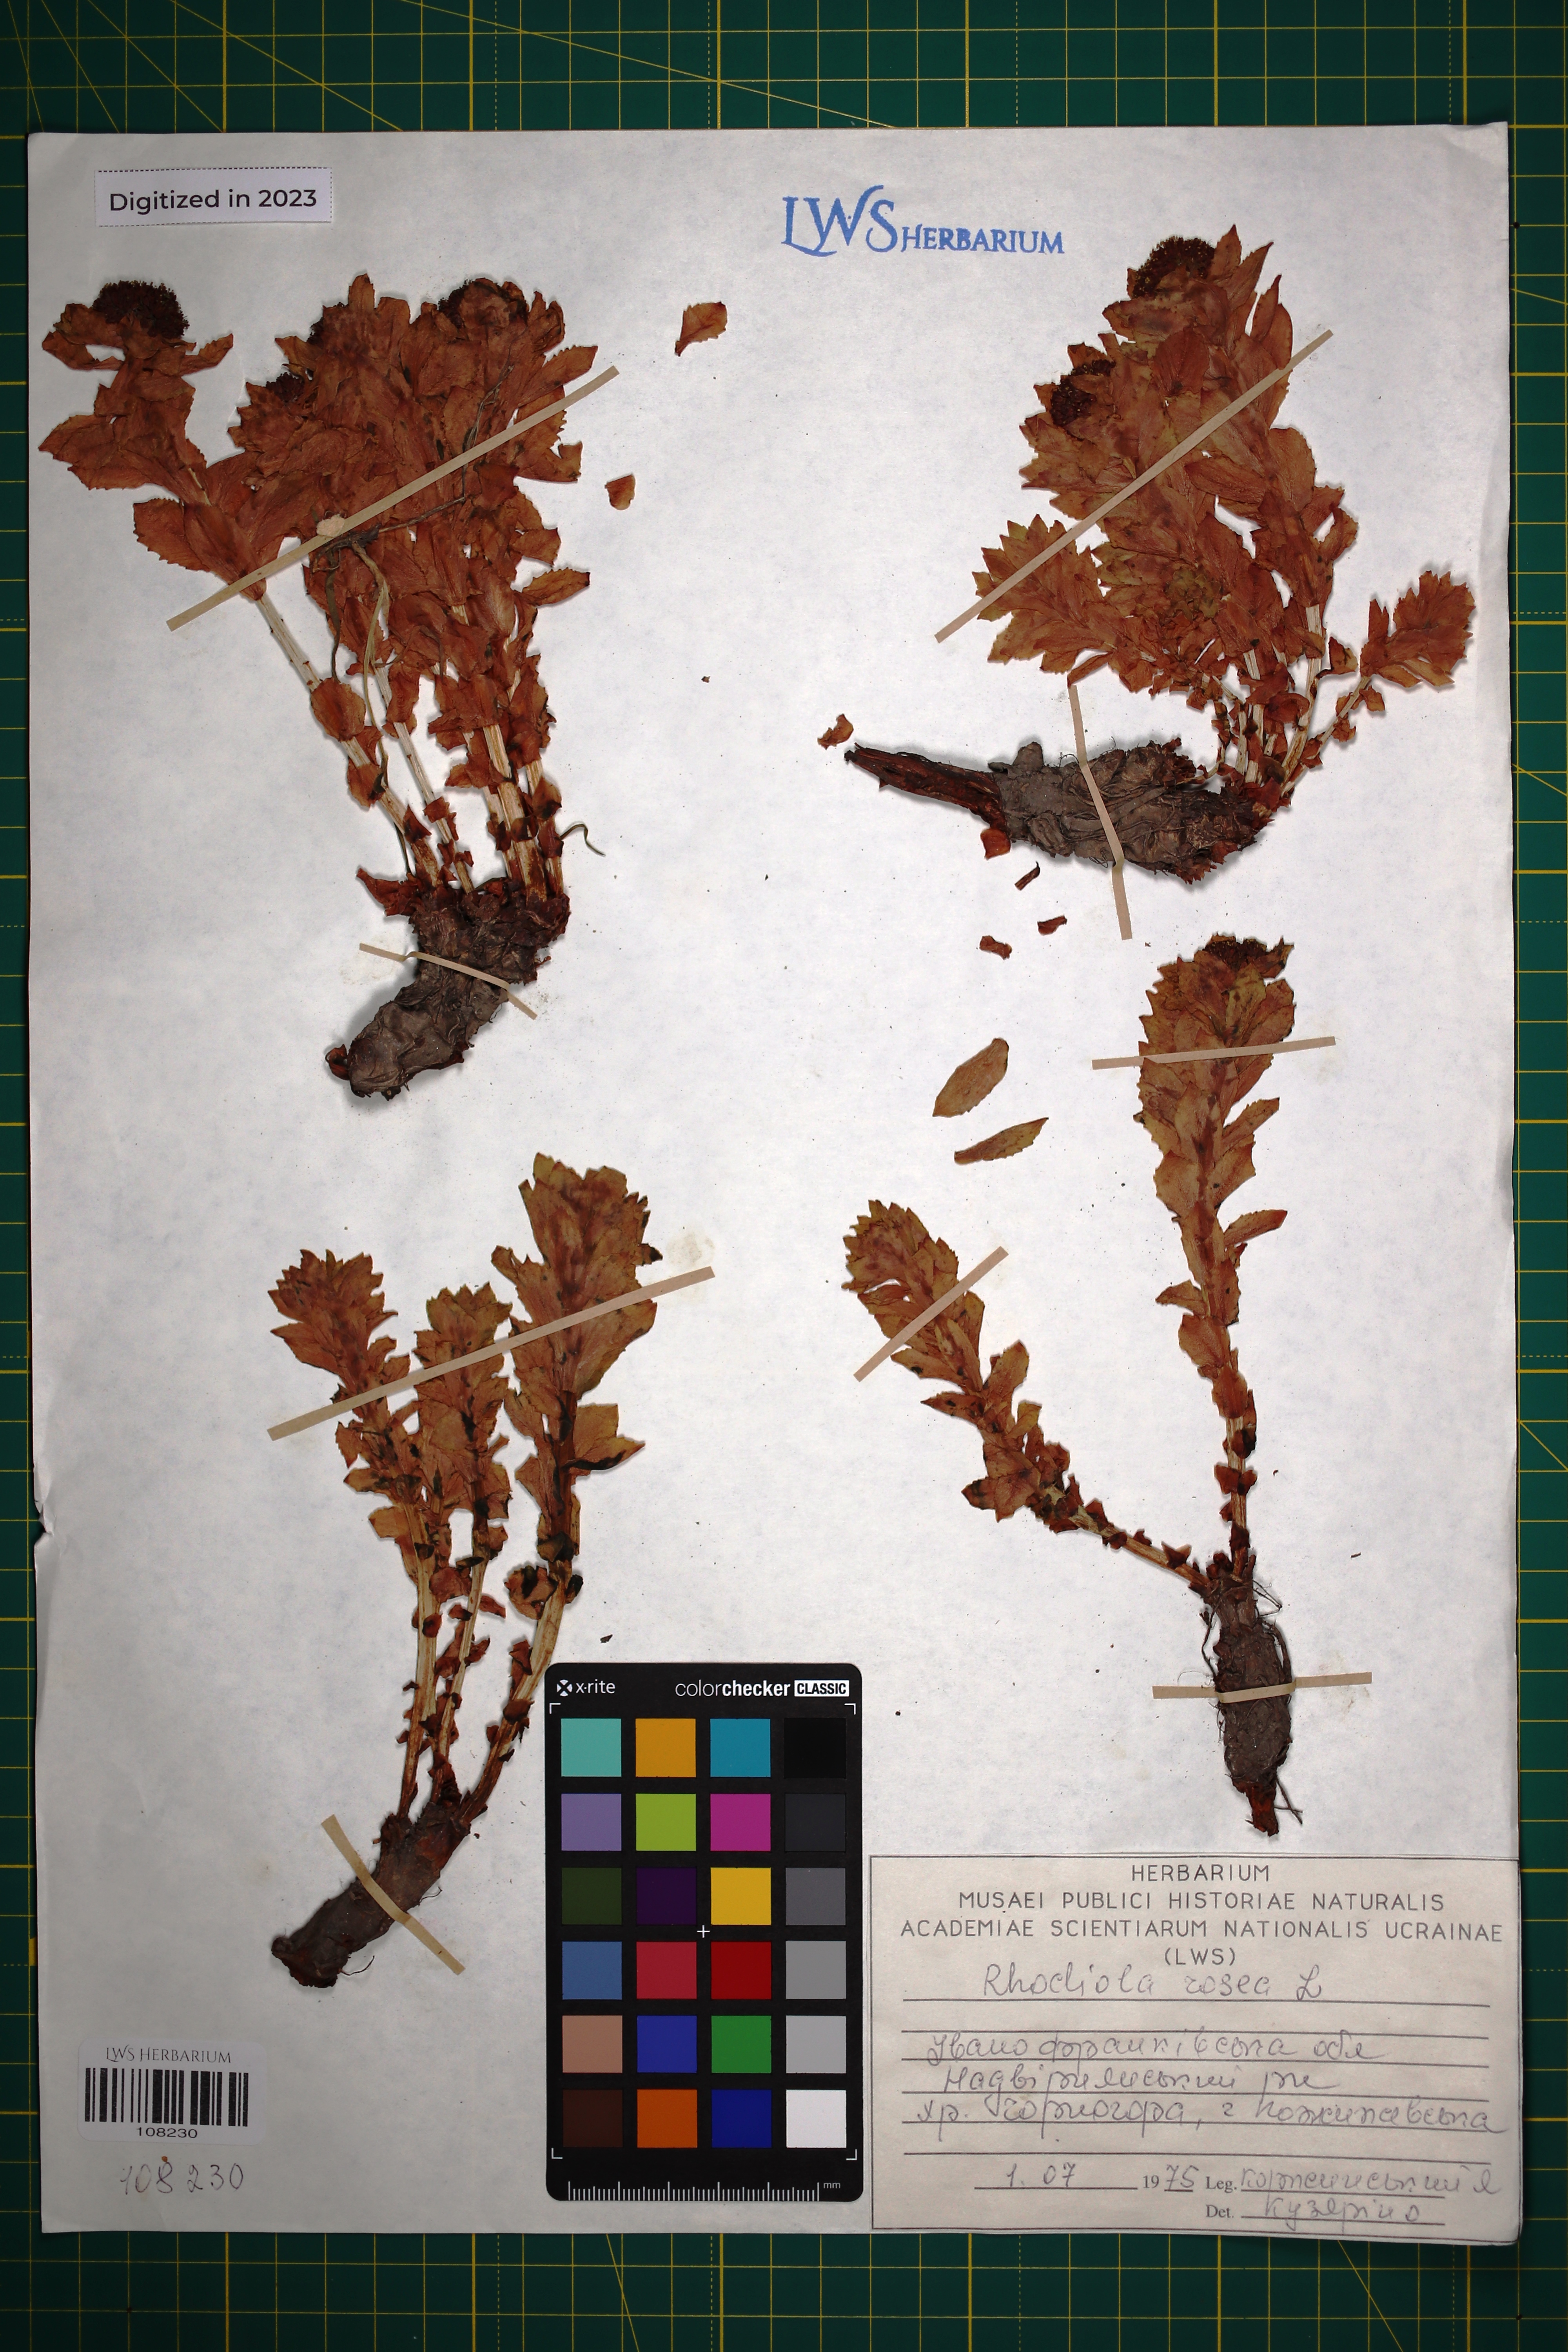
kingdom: Plantae
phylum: Tracheophyta
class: Magnoliopsida
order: Saxifragales
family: Crassulaceae
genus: Rhodiola
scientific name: Rhodiola rosea
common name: Roseroot
